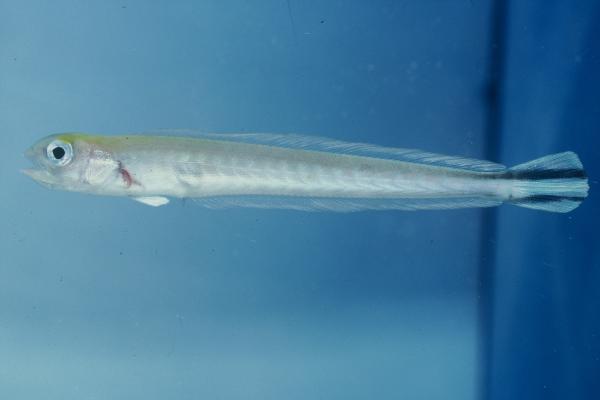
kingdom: Animalia
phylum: Chordata
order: Perciformes
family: Malacanthidae
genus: Malacanthus
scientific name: Malacanthus brevirostris
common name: Flagtail blanquillo
